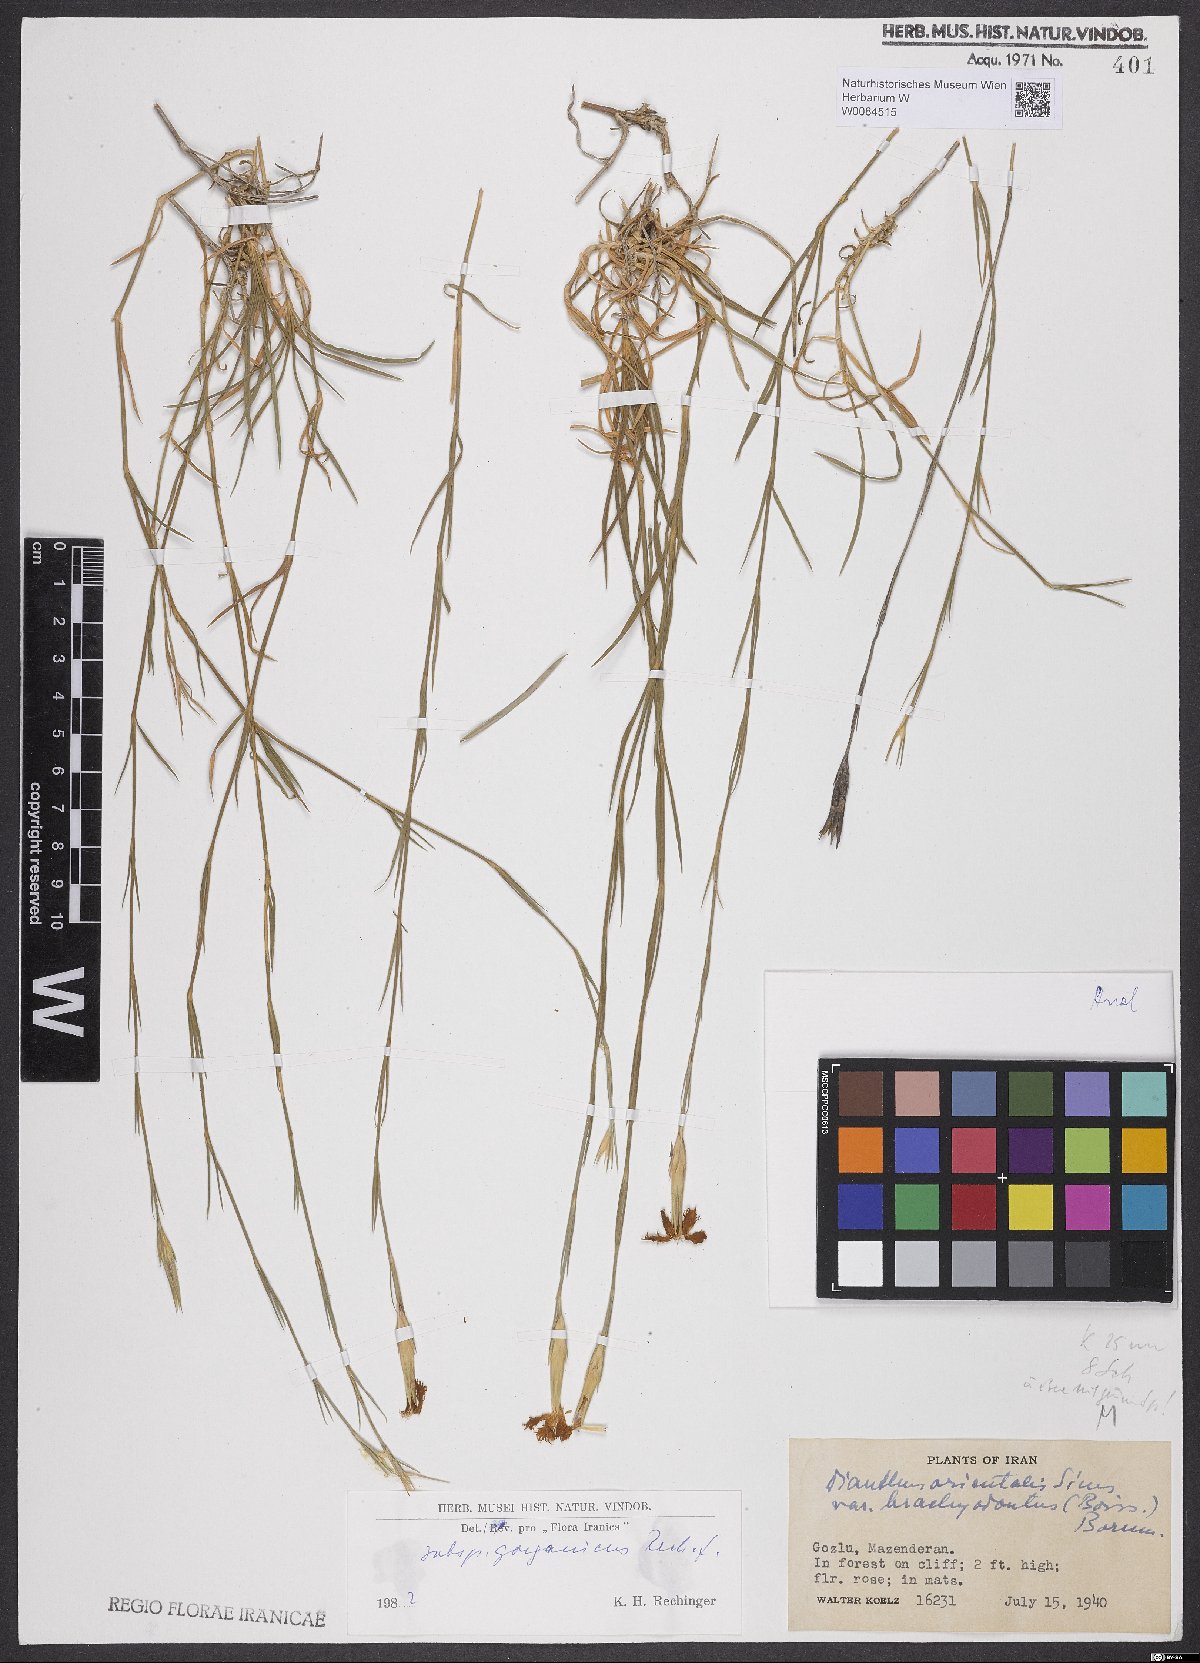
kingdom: Plantae
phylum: Tracheophyta
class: Magnoliopsida
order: Caryophyllales
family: Caryophyllaceae
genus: Dianthus
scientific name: Dianthus orientalis
